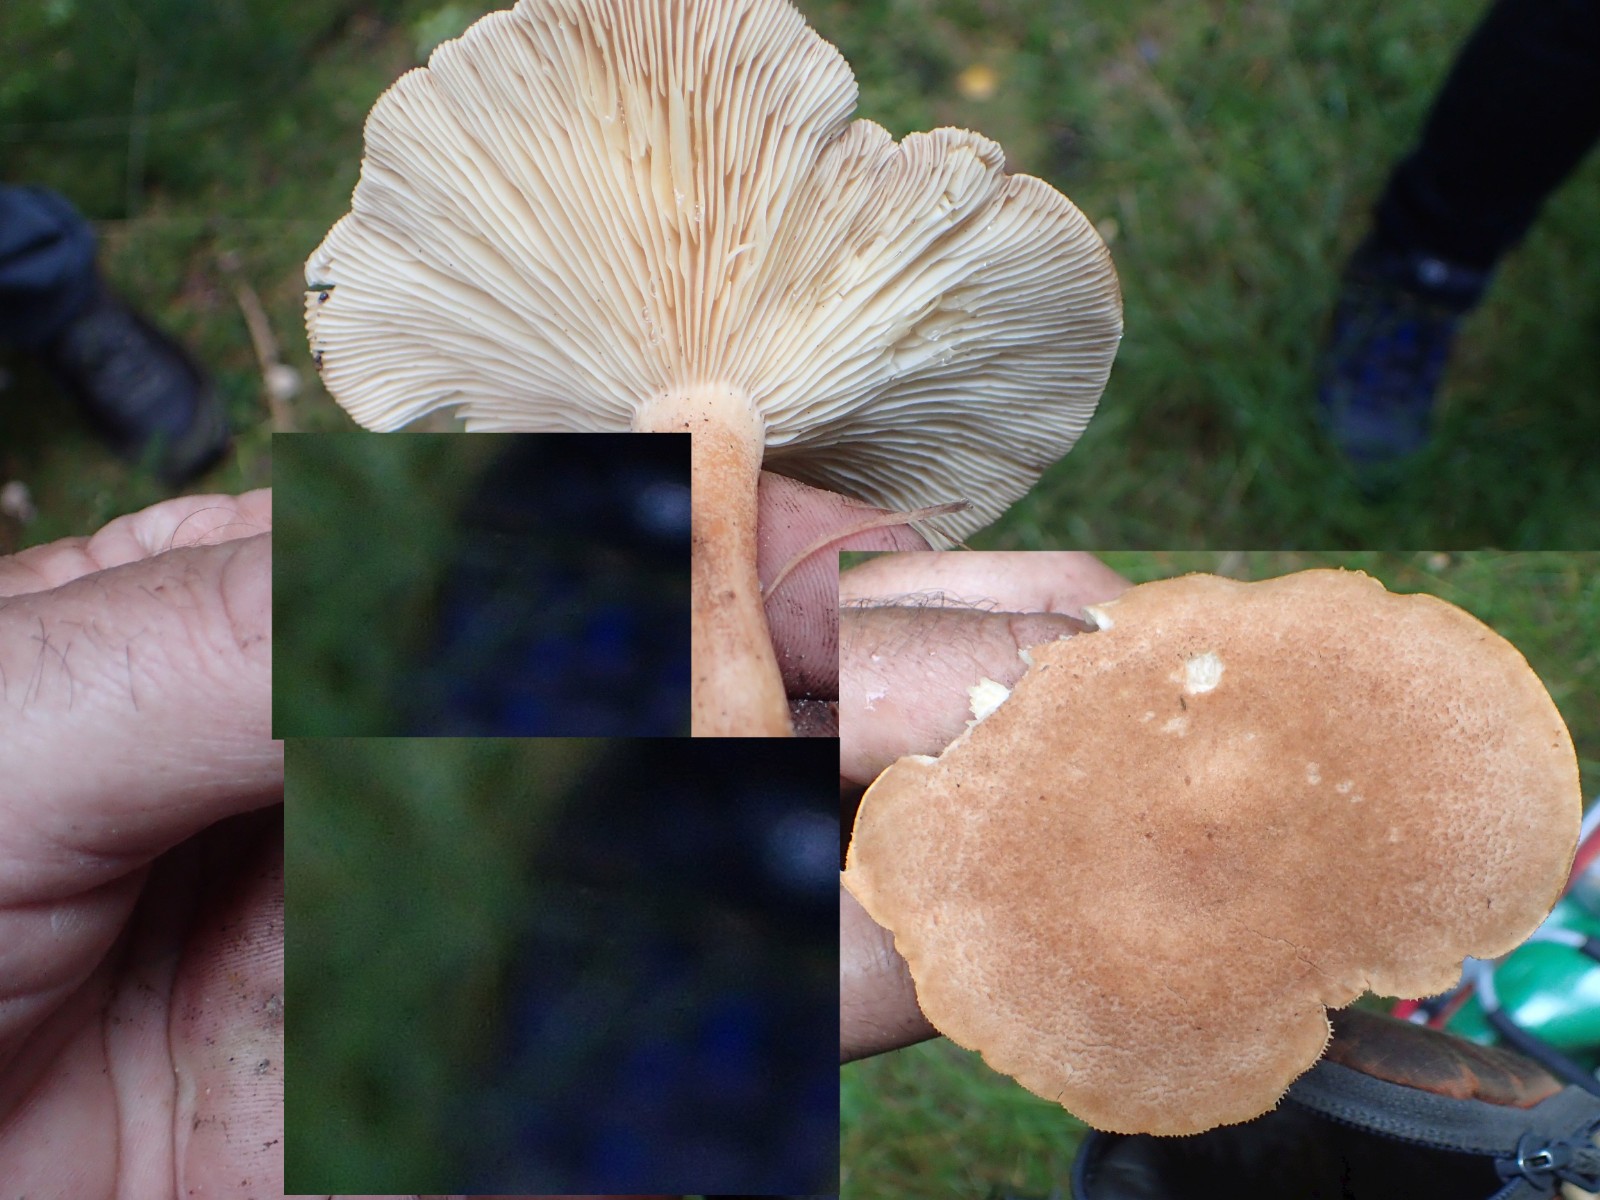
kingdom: Fungi
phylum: Basidiomycota
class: Agaricomycetes
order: Russulales
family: Russulaceae
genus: Lactarius
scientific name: Lactarius helvus
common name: mose-mælkehat
